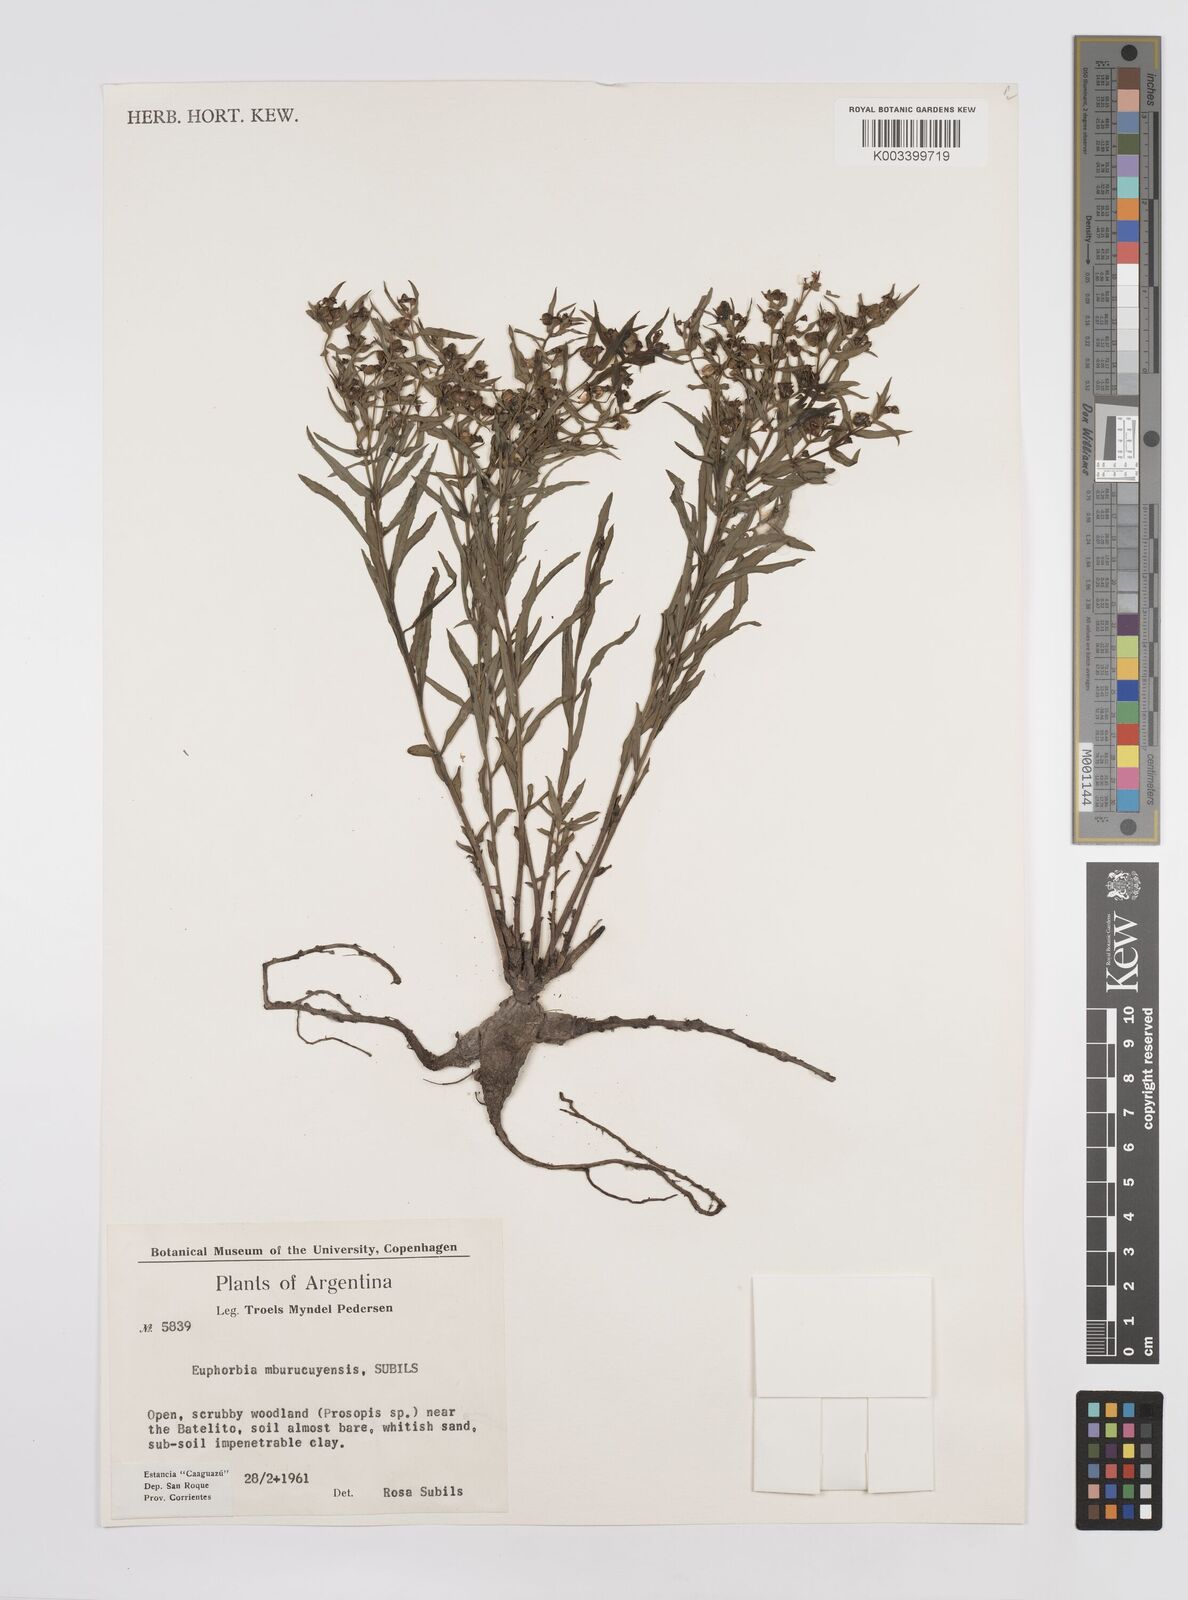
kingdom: Plantae
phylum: Tracheophyta
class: Magnoliopsida
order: Malpighiales
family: Euphorbiaceae
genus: Euphorbia
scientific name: Euphorbia
